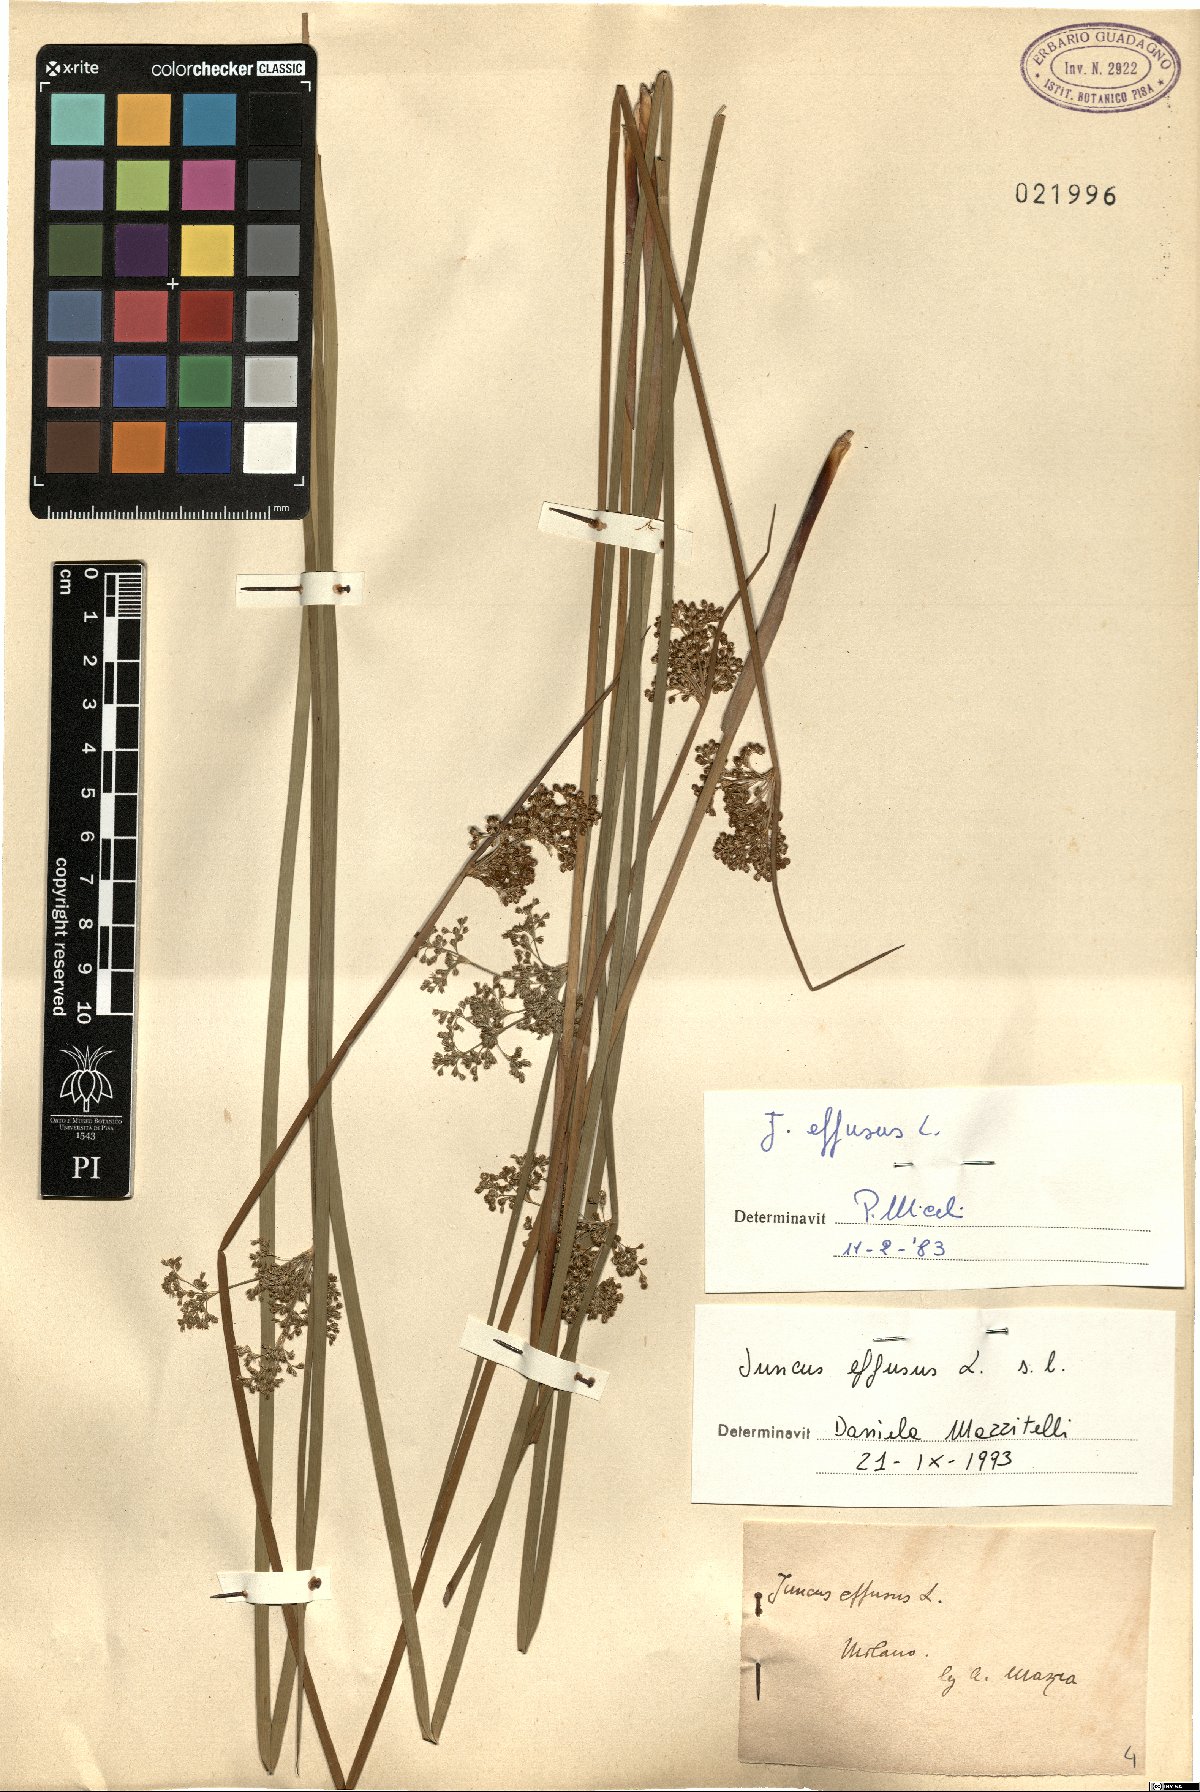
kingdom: Plantae
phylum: Tracheophyta
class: Liliopsida
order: Poales
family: Juncaceae
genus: Juncus
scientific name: Juncus effusus
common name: Soft rush
